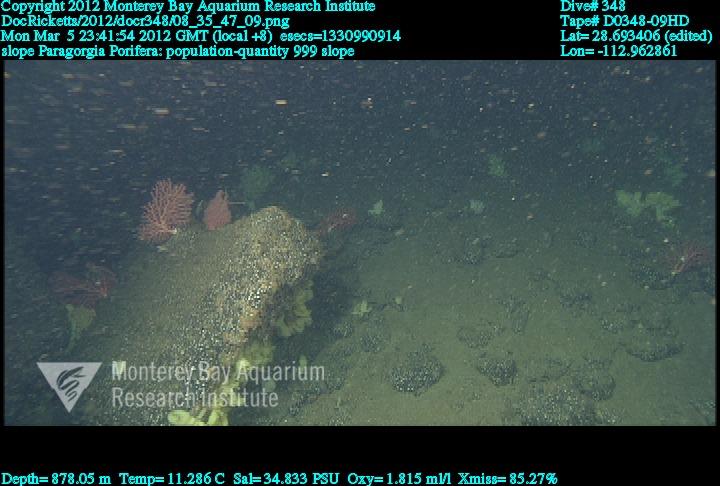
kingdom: Animalia
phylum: Porifera
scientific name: Porifera
